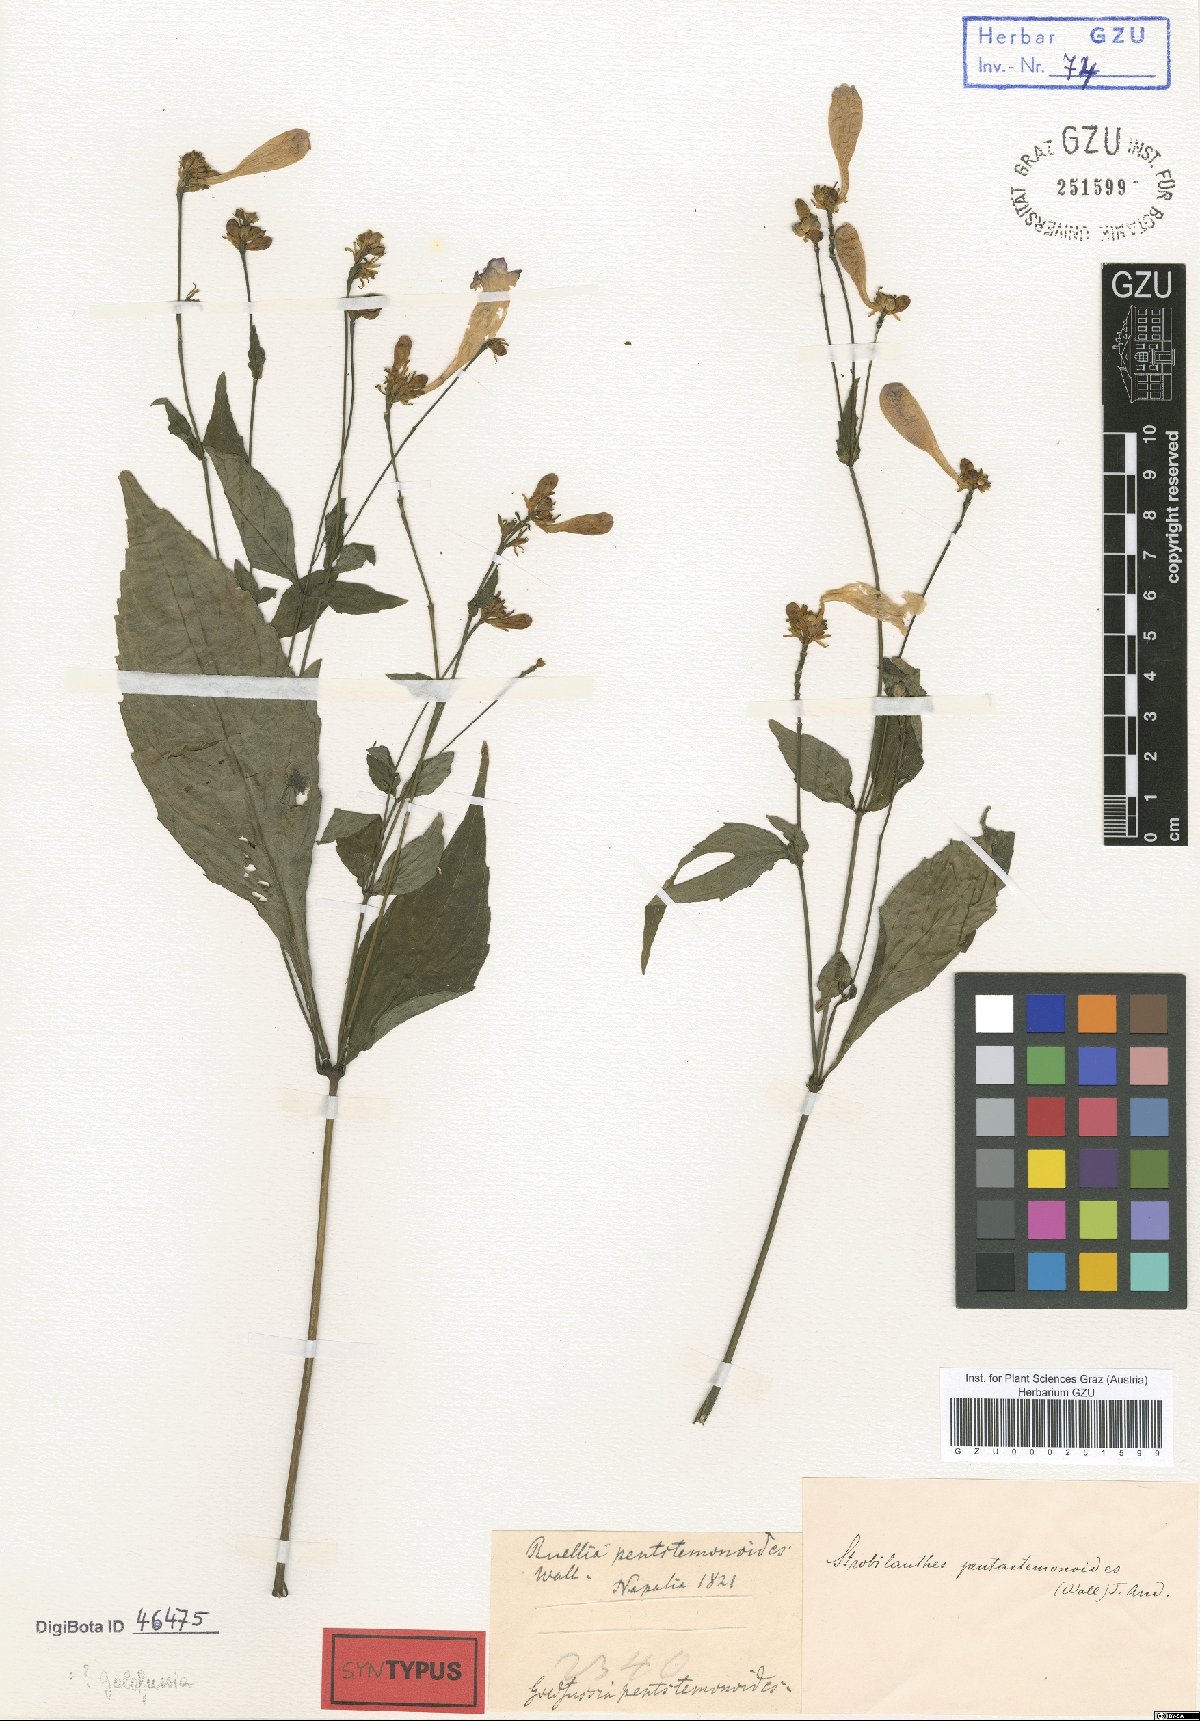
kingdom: Plantae
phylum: Tracheophyta
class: Magnoliopsida
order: Lamiales
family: Acanthaceae
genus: Strobilanthes
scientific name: Strobilanthes pentastemonoides
